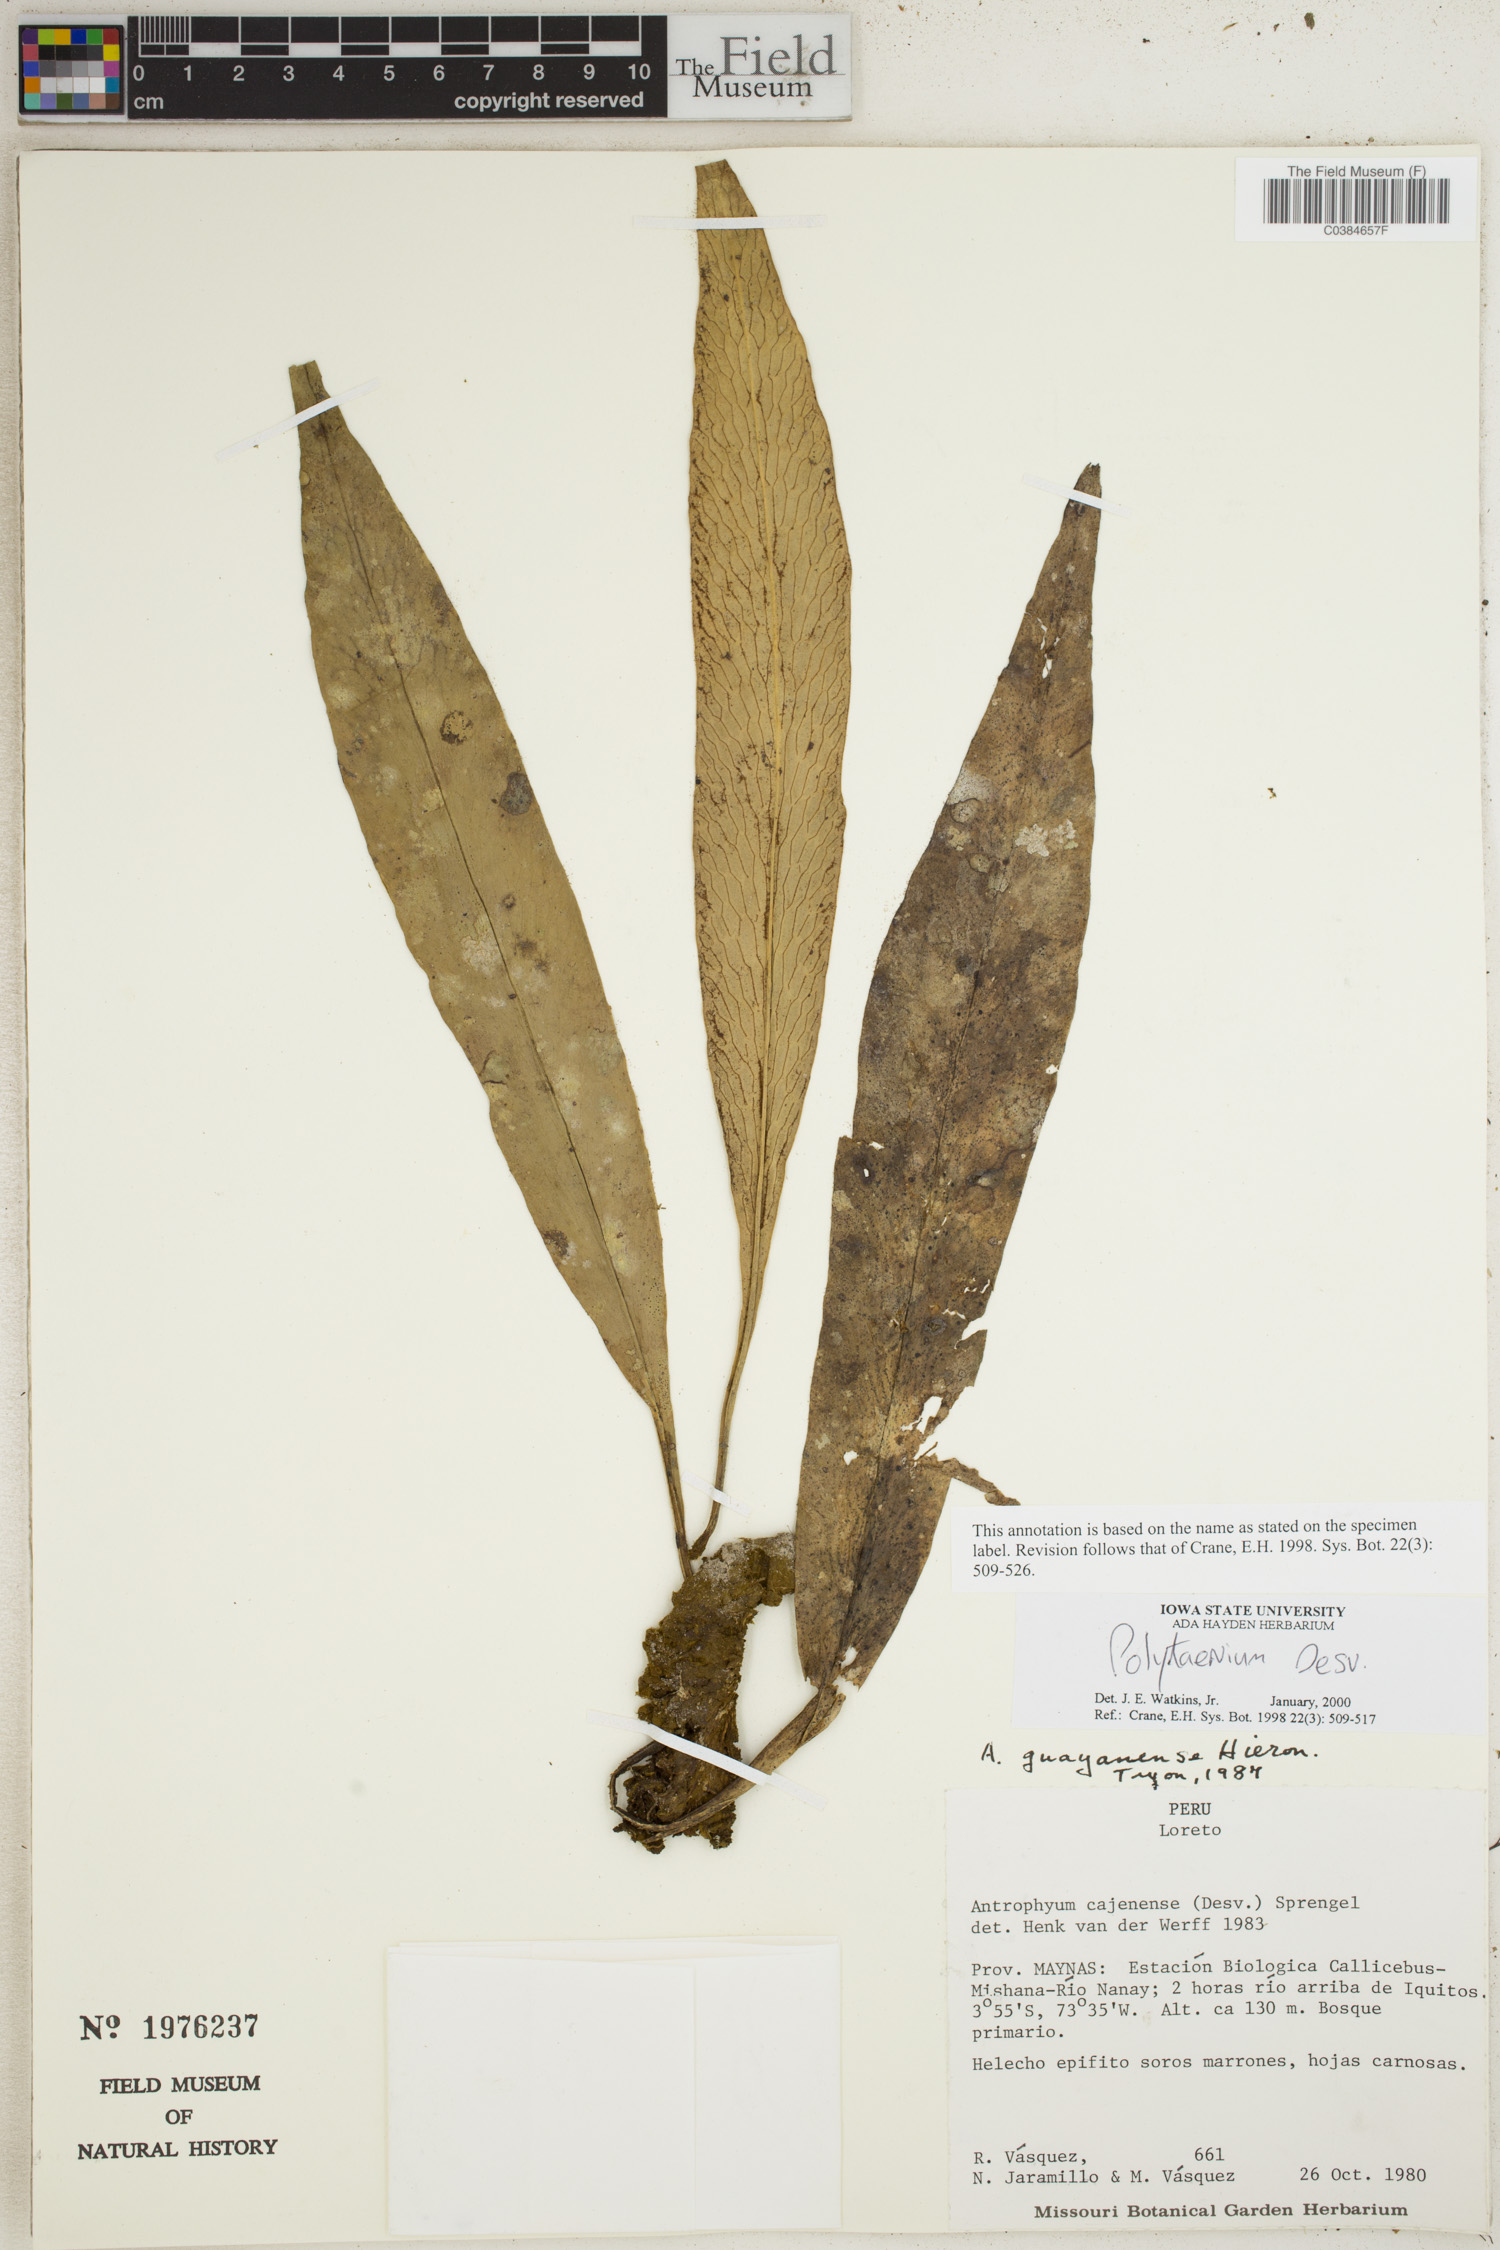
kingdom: Plantae
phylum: Tracheophyta
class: Polypodiopsida
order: Polypodiales
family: Pteridaceae
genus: Polytaenium
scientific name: Polytaenium
